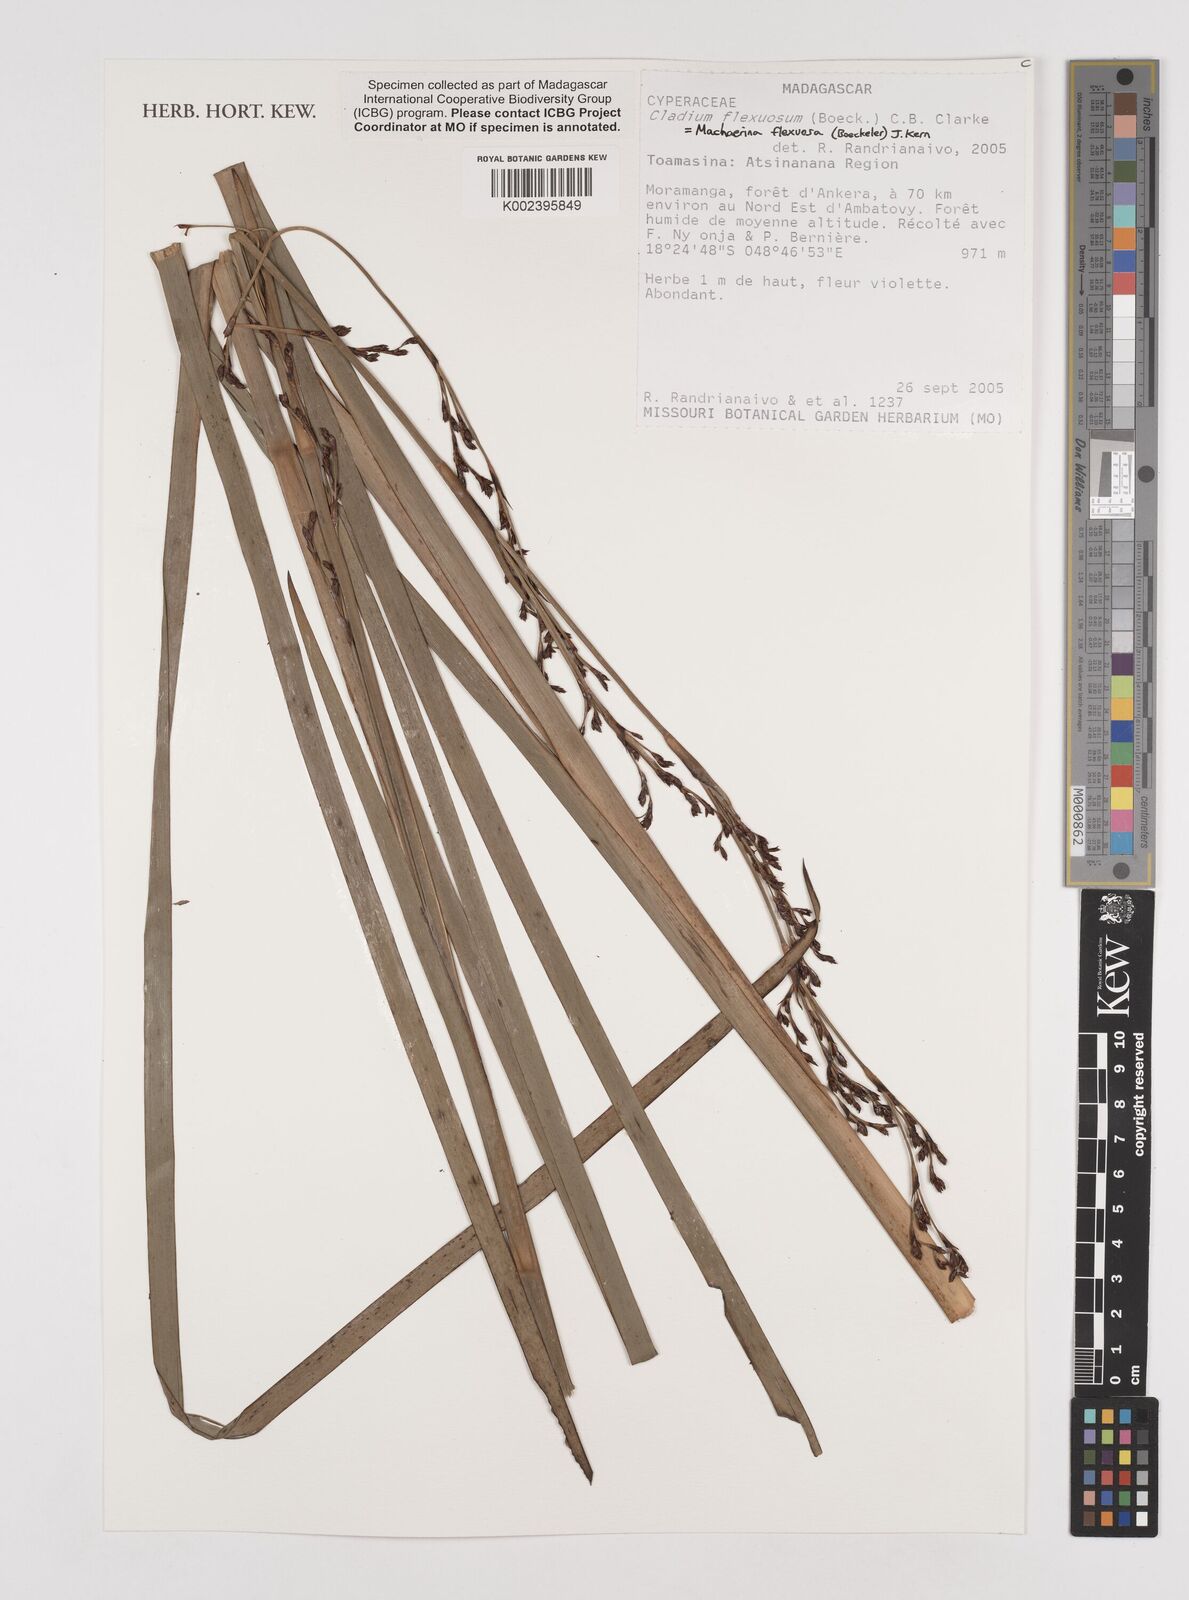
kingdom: Plantae
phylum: Tracheophyta
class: Liliopsida
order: Poales
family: Cyperaceae
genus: Machaerina
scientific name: Machaerina flexuosa
